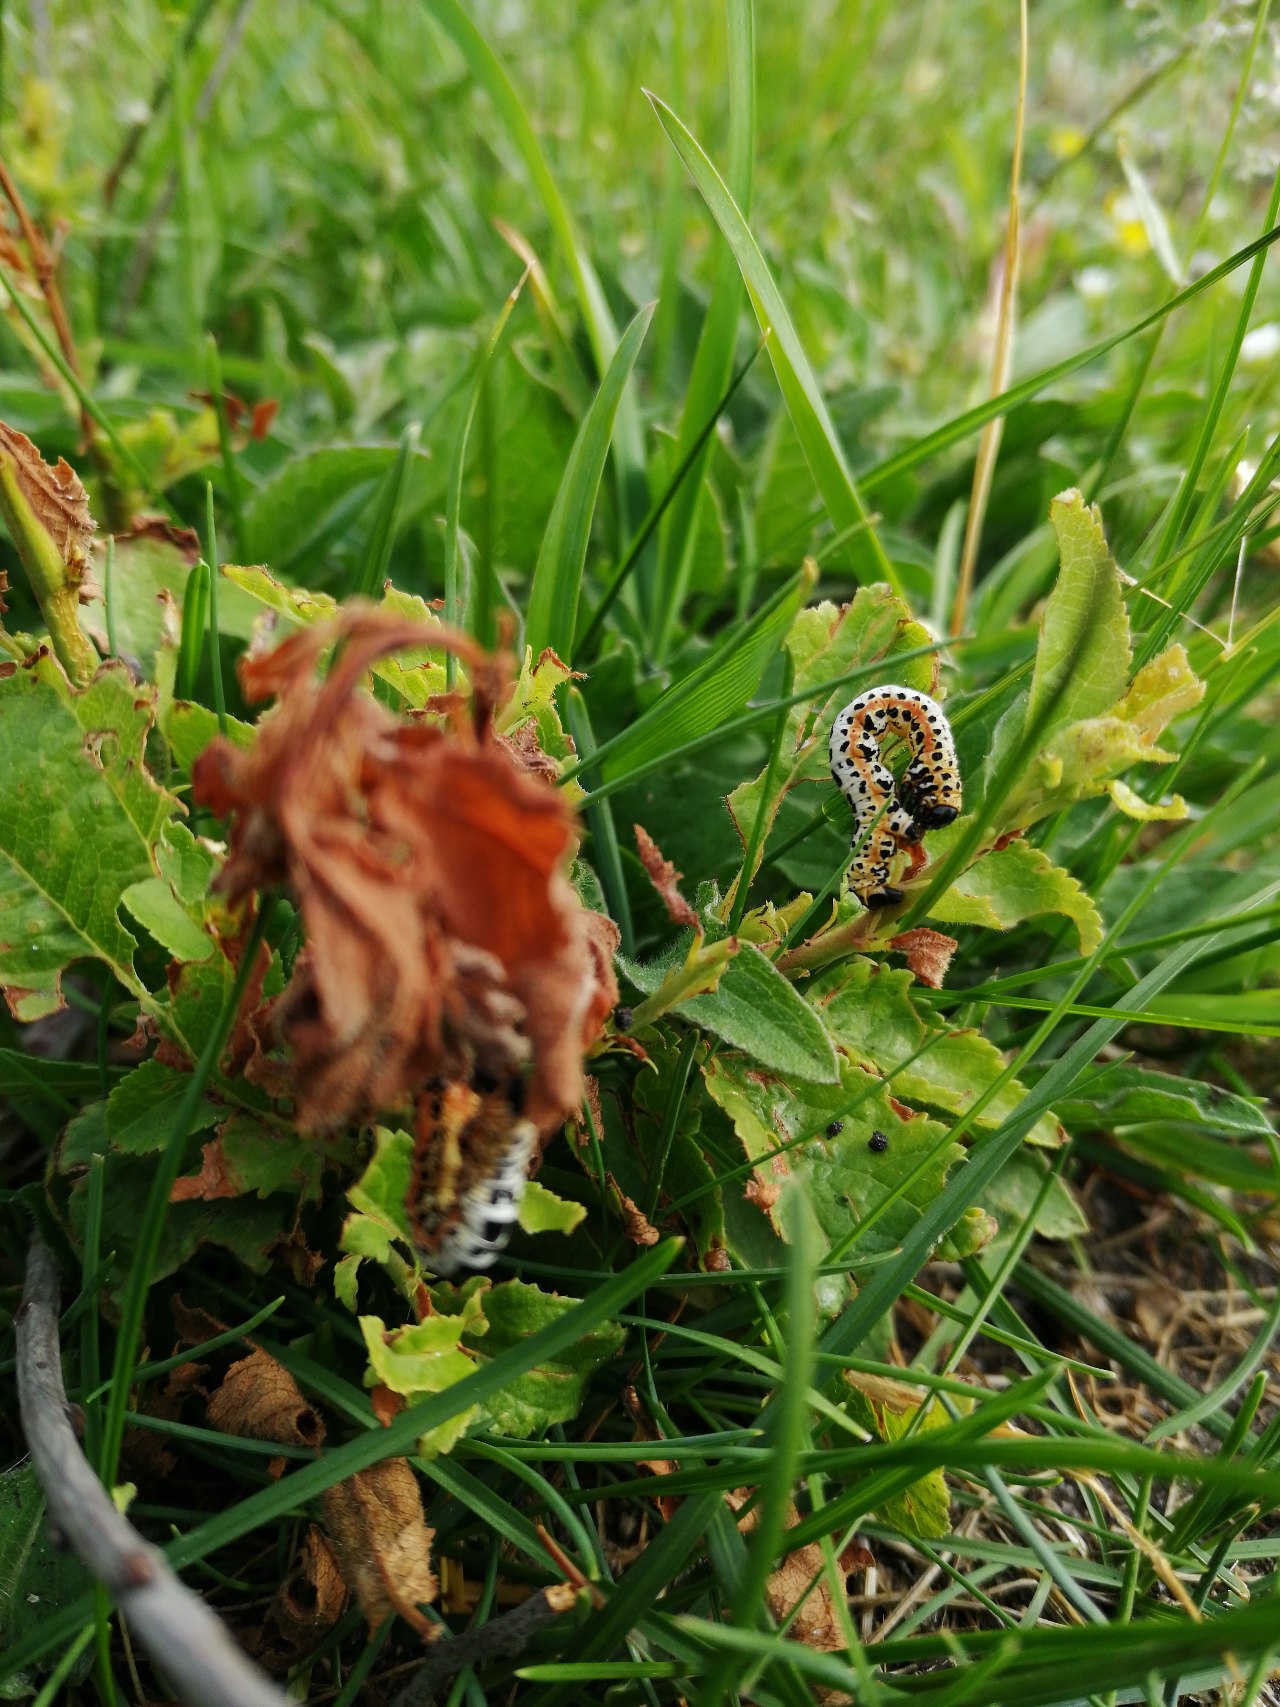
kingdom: Animalia
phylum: Arthropoda
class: Insecta
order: Lepidoptera
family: Geometridae
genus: Abraxas
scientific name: Abraxas grossulariata
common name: Harlekin
